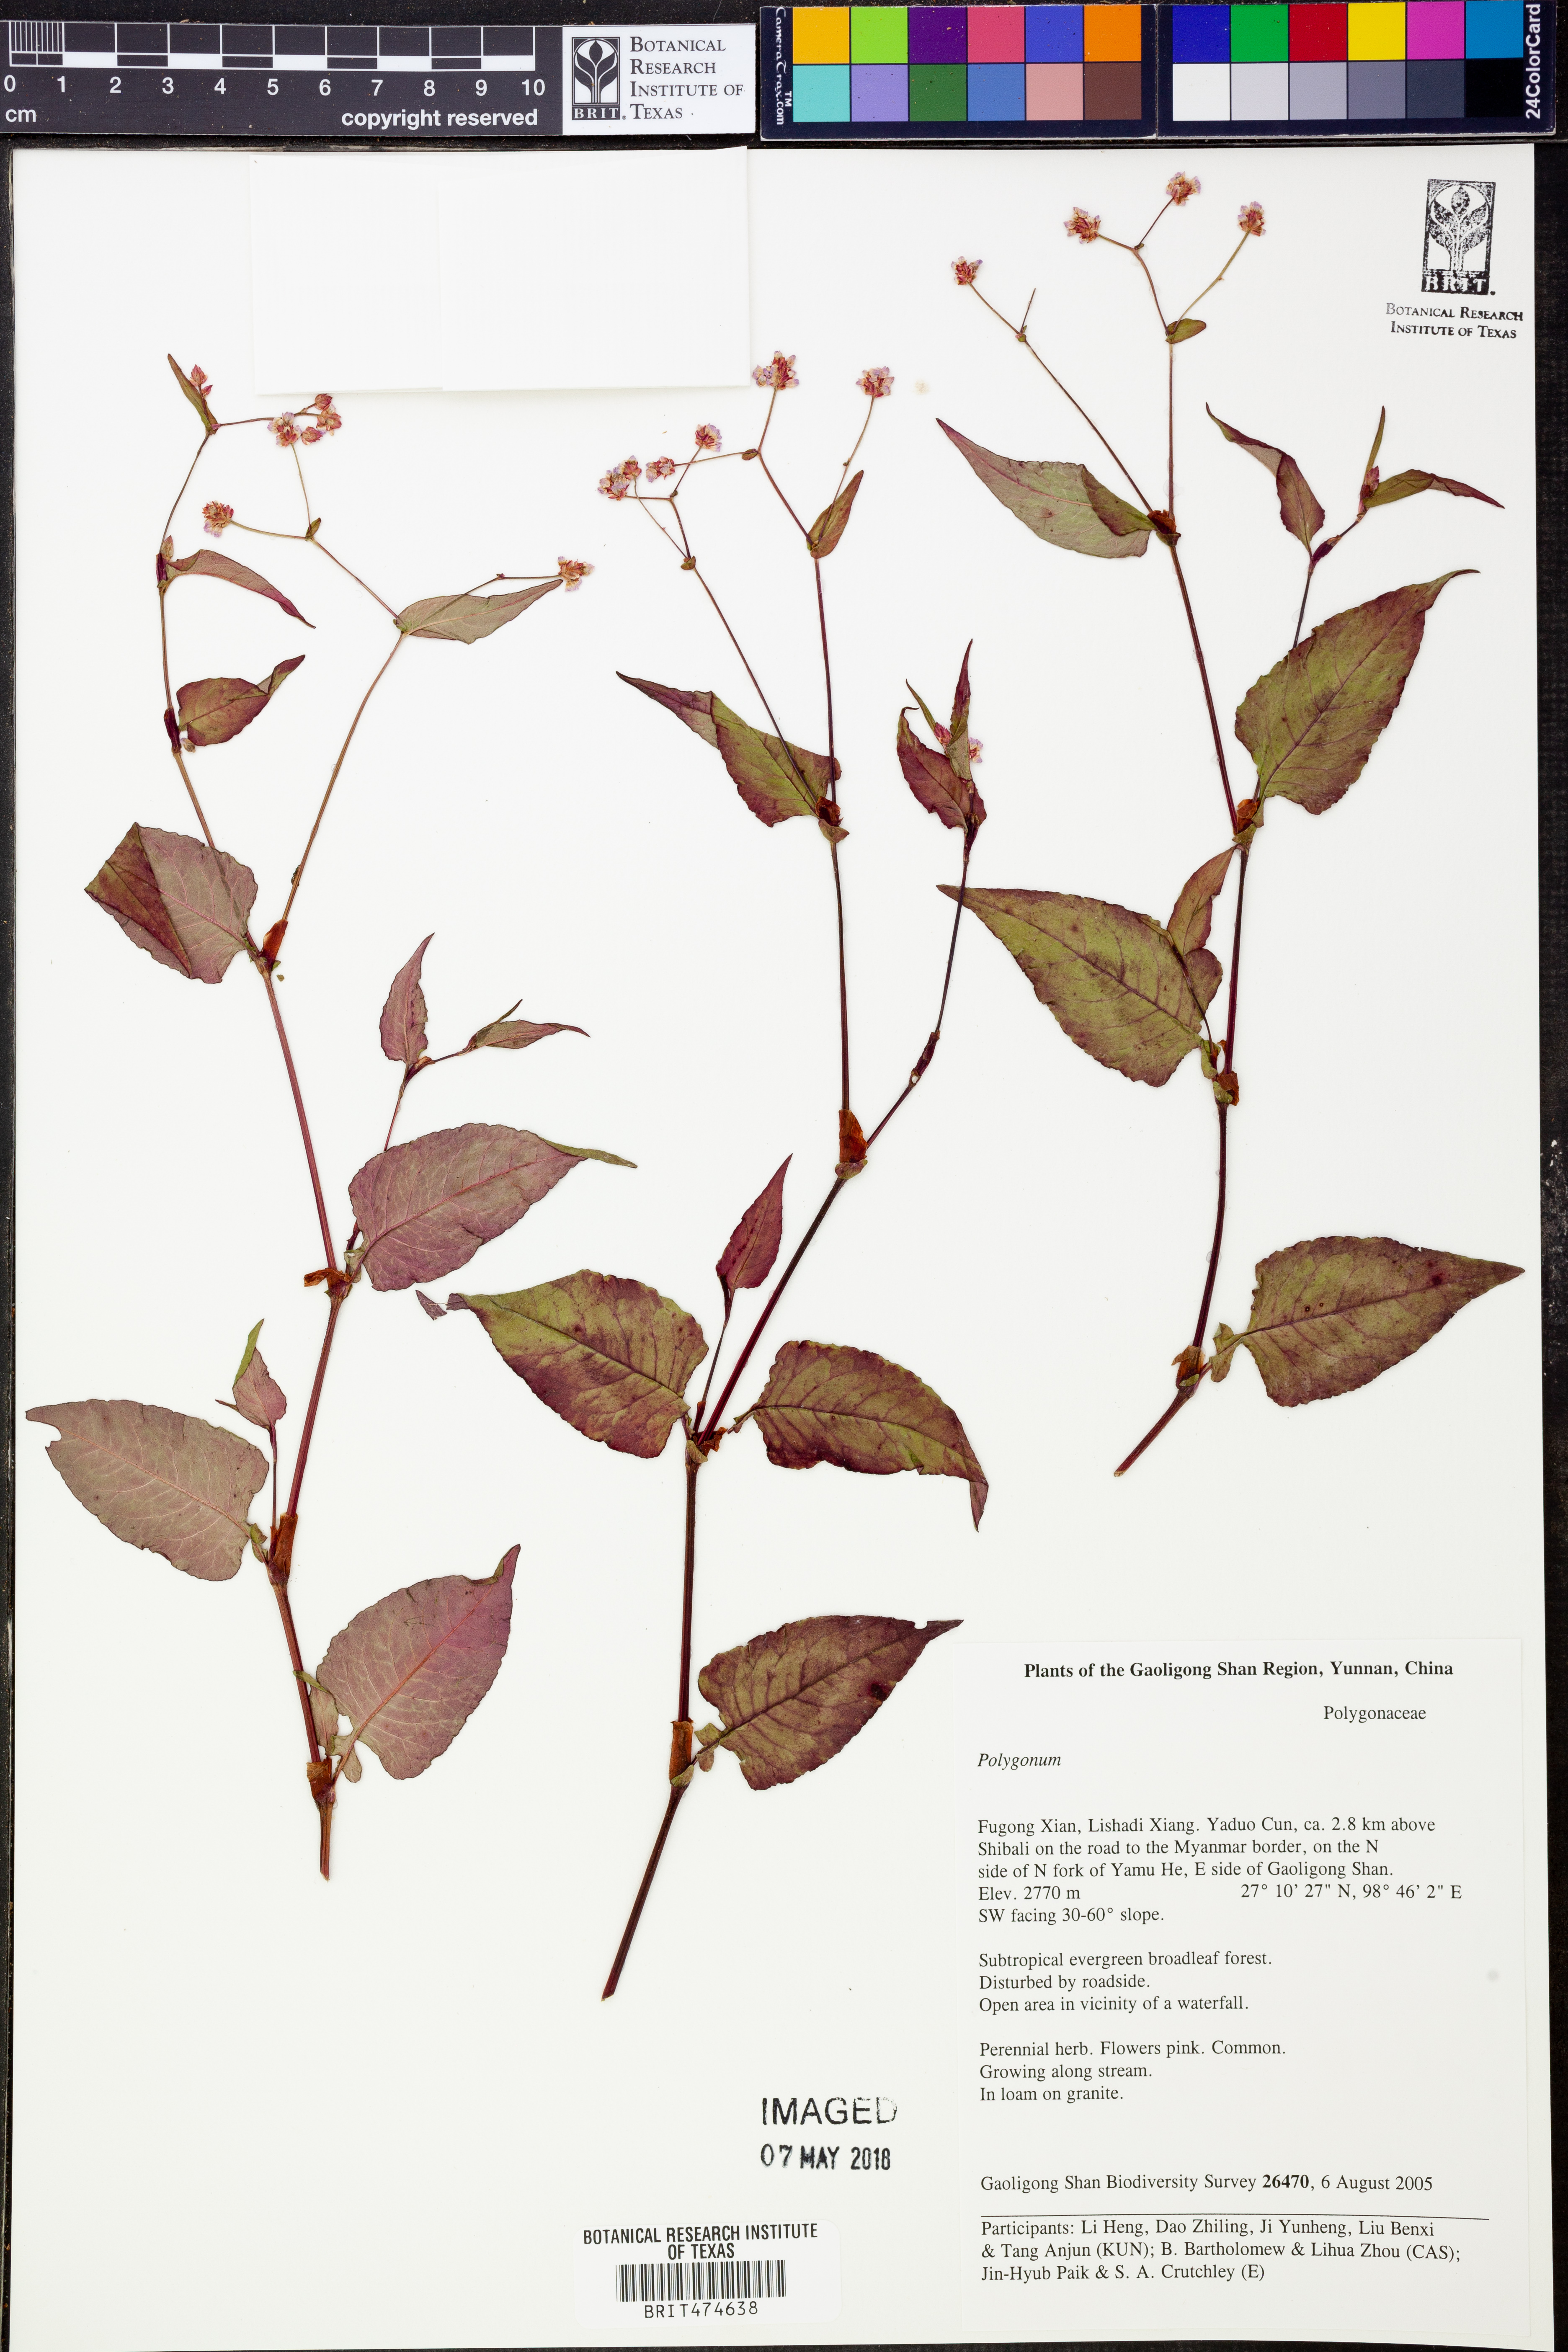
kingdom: Plantae
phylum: Tracheophyta
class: Magnoliopsida
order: Caryophyllales
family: Polygonaceae
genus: Polygonum
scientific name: Polygonum
